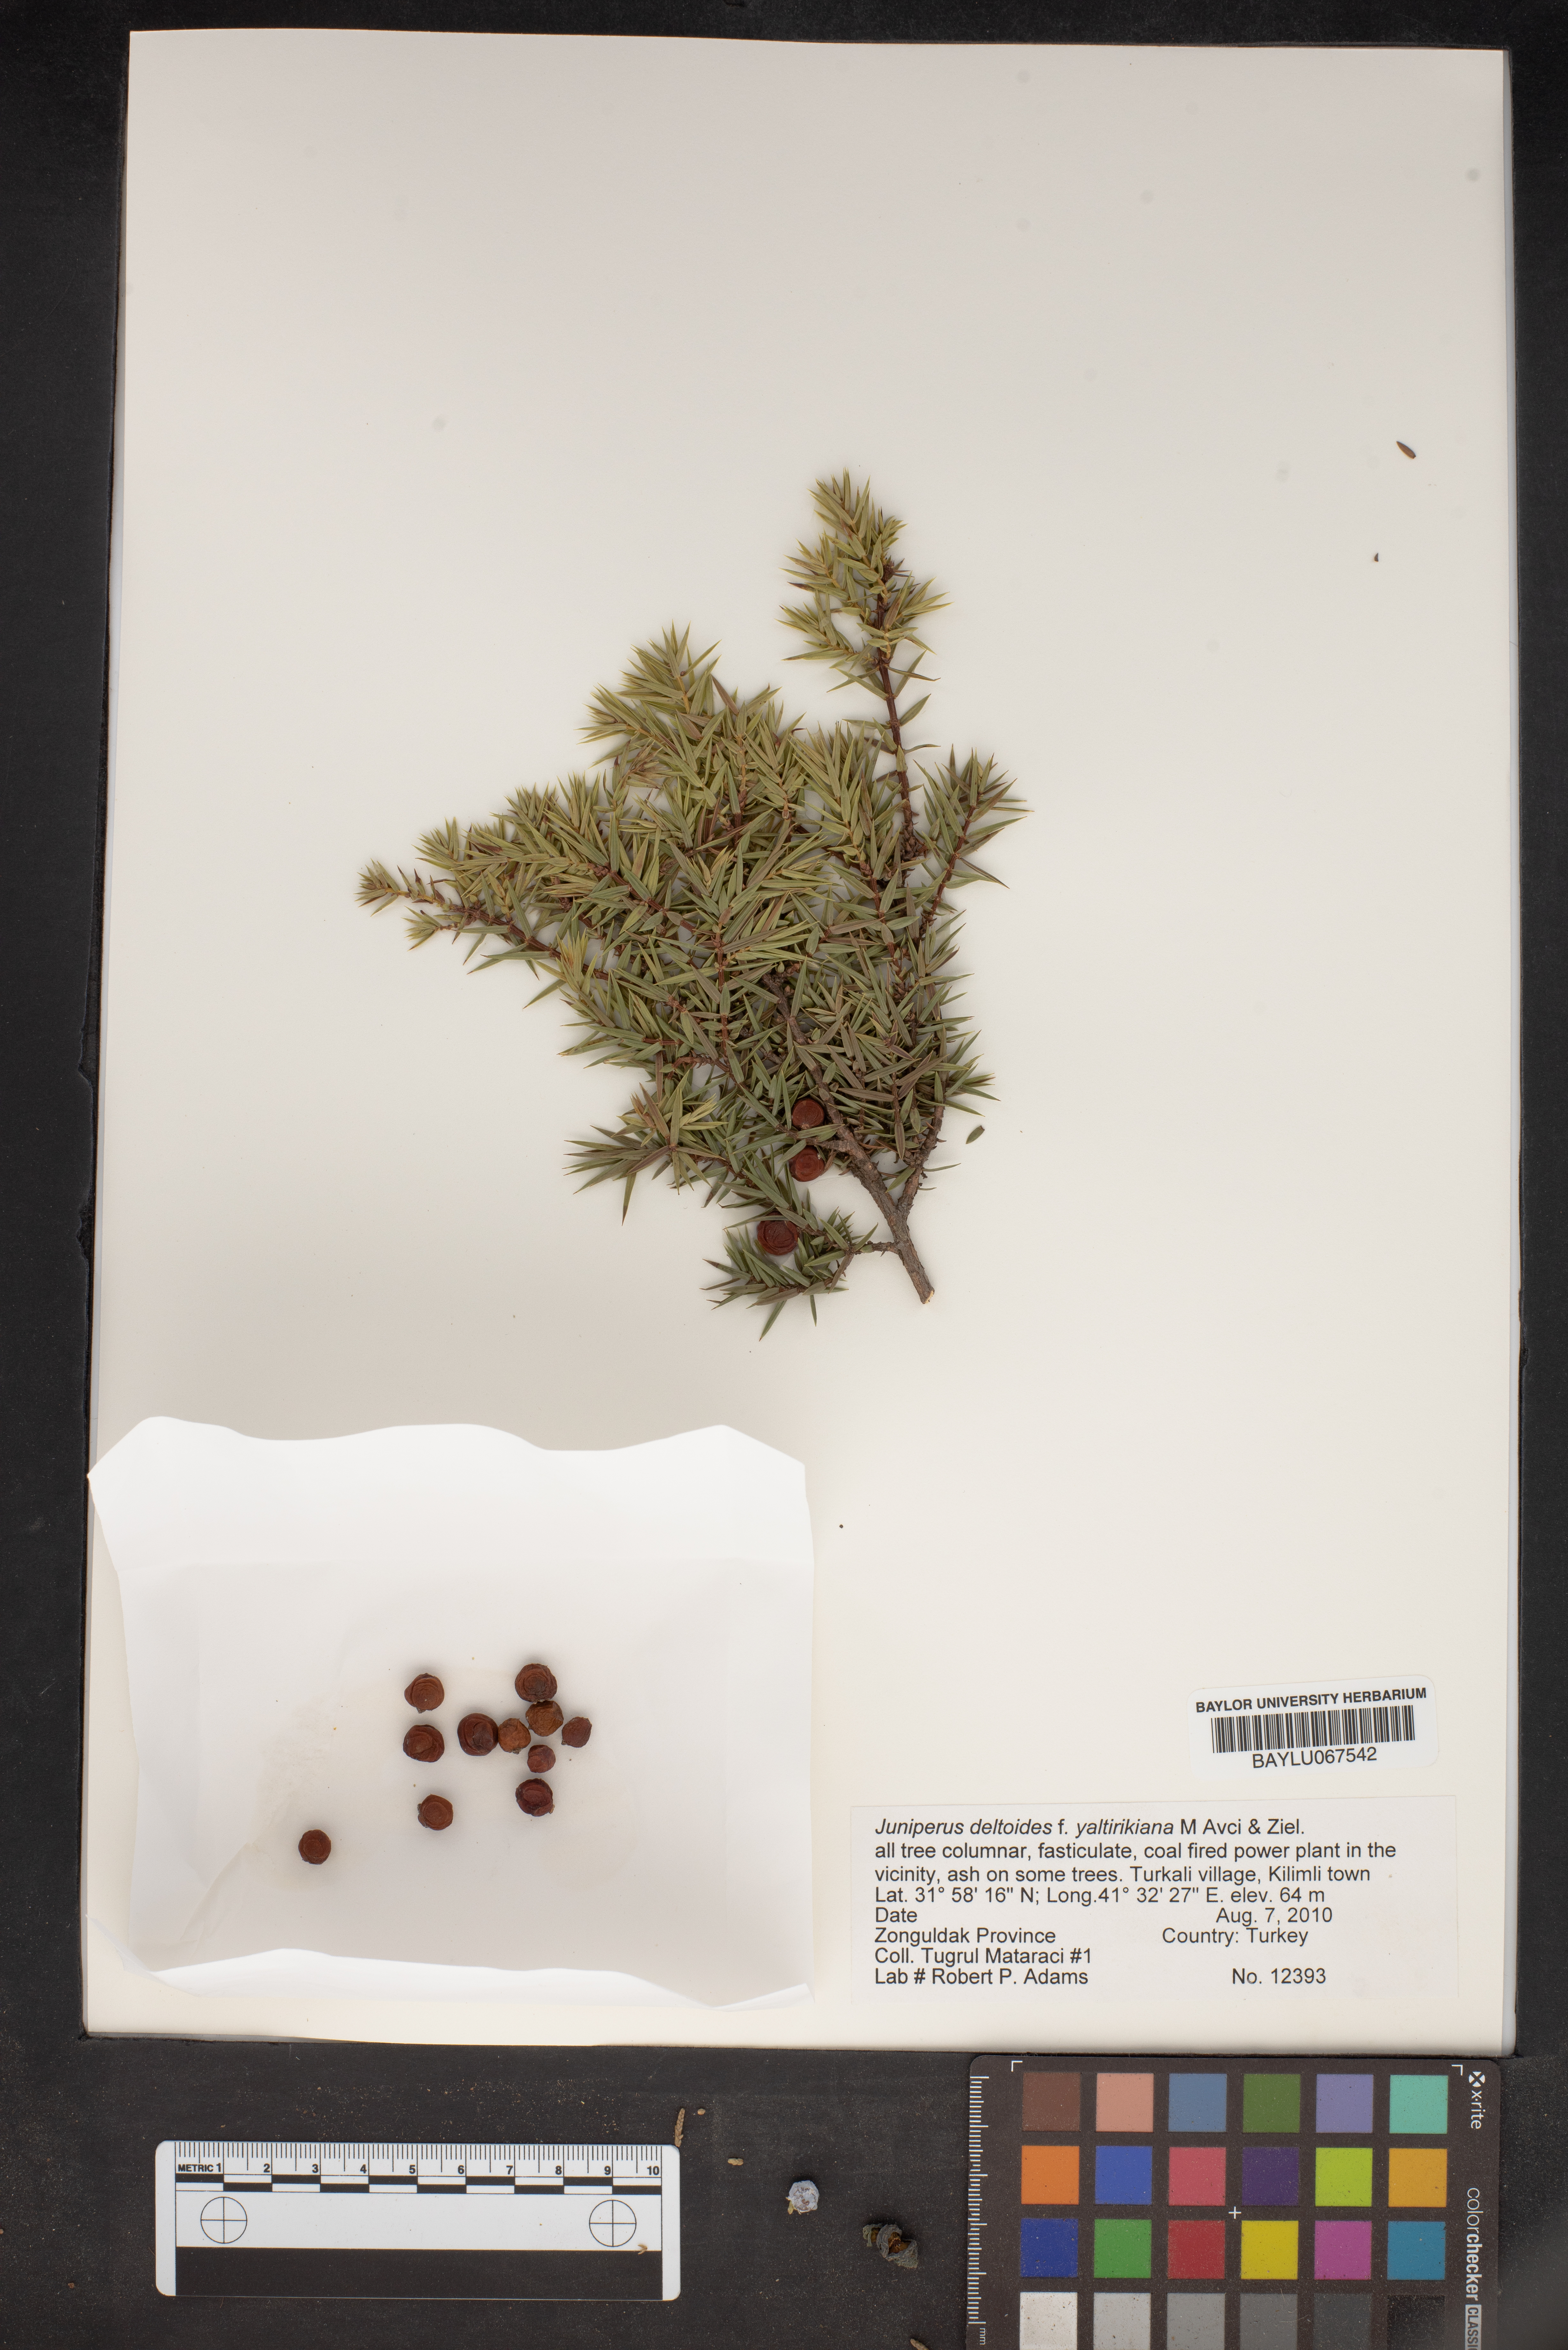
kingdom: Plantae
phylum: Tracheophyta
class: Pinopsida
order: Pinales
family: Cupressaceae
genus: Juniperus
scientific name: Juniperus oxycedrus
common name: Prickly juniper
